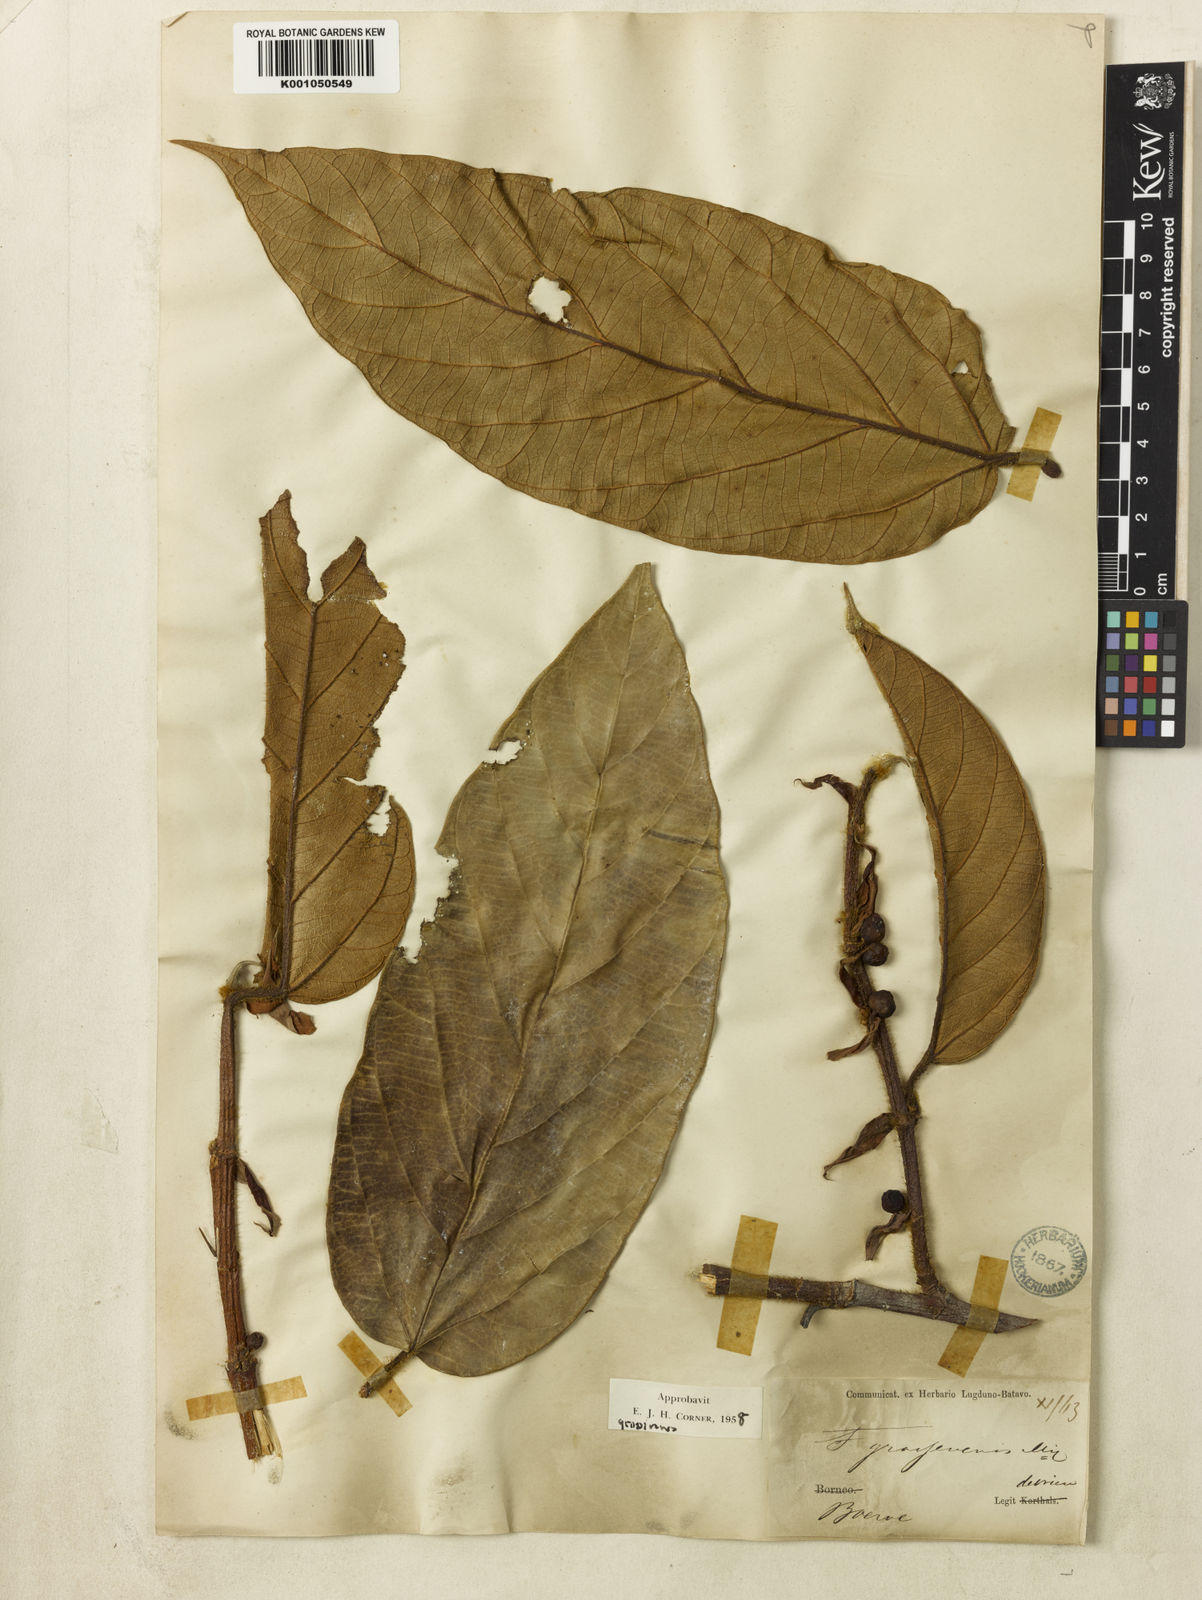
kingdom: Plantae
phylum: Tracheophyta
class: Magnoliopsida
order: Rosales
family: Moraceae
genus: Ficus
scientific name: Ficus villosa
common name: Villous fig
